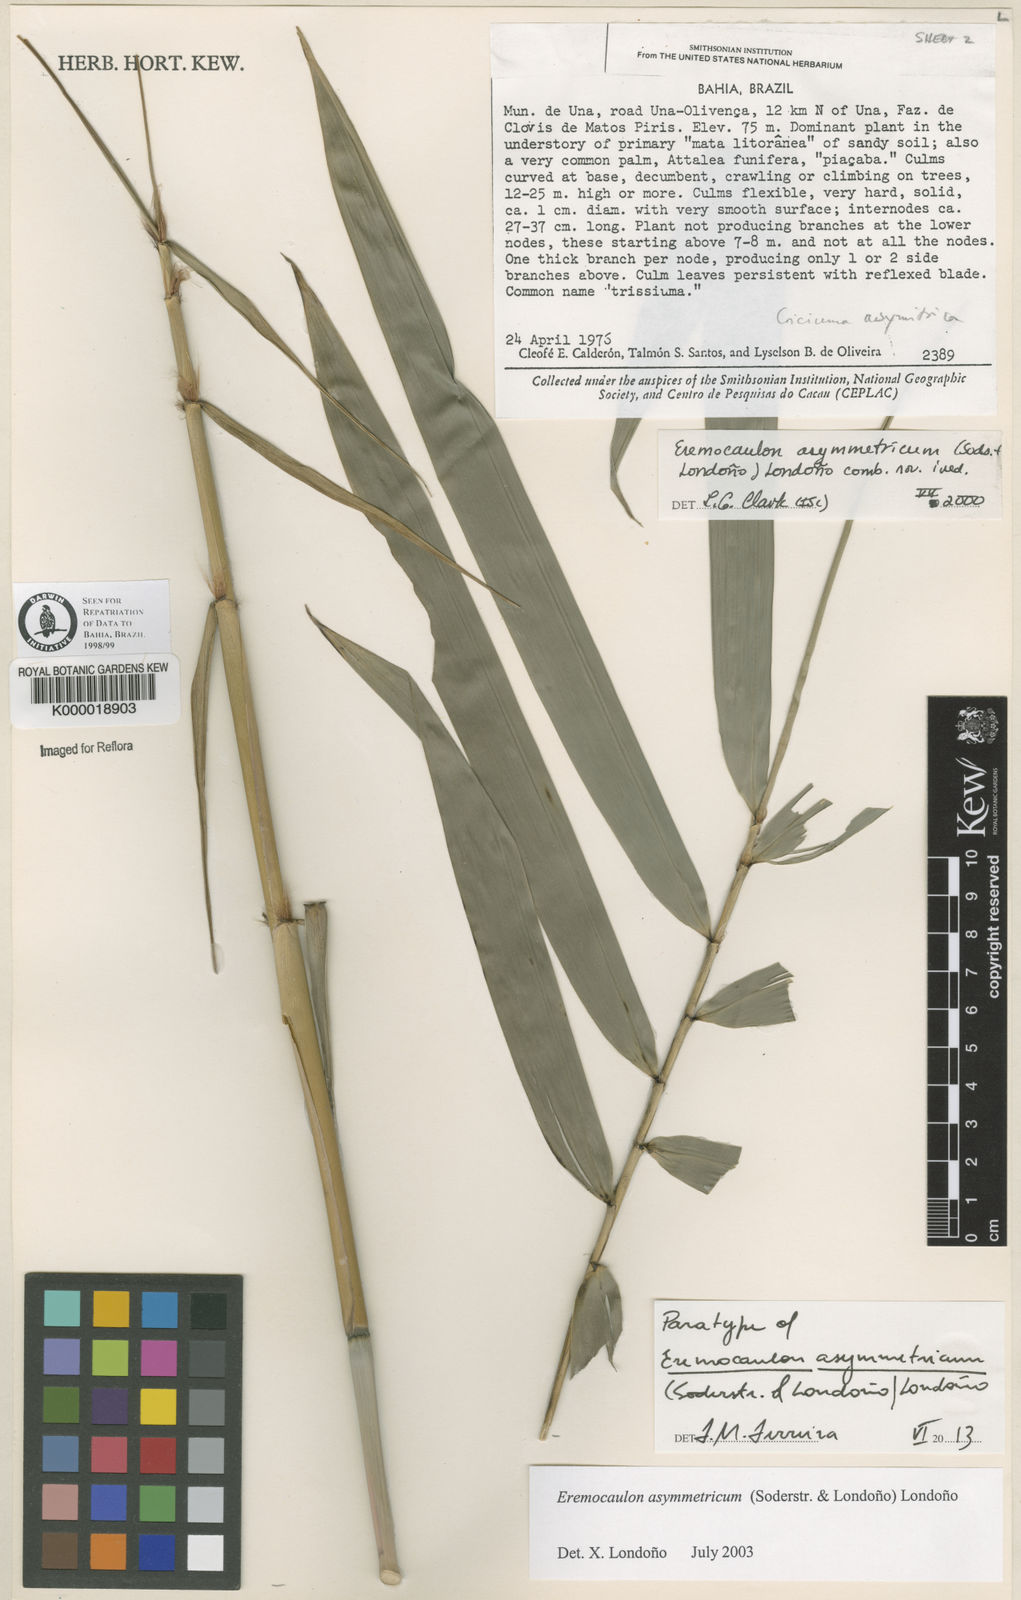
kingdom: Plantae
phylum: Tracheophyta
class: Liliopsida
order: Poales
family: Poaceae
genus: Eremocaulon
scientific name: Eremocaulon
